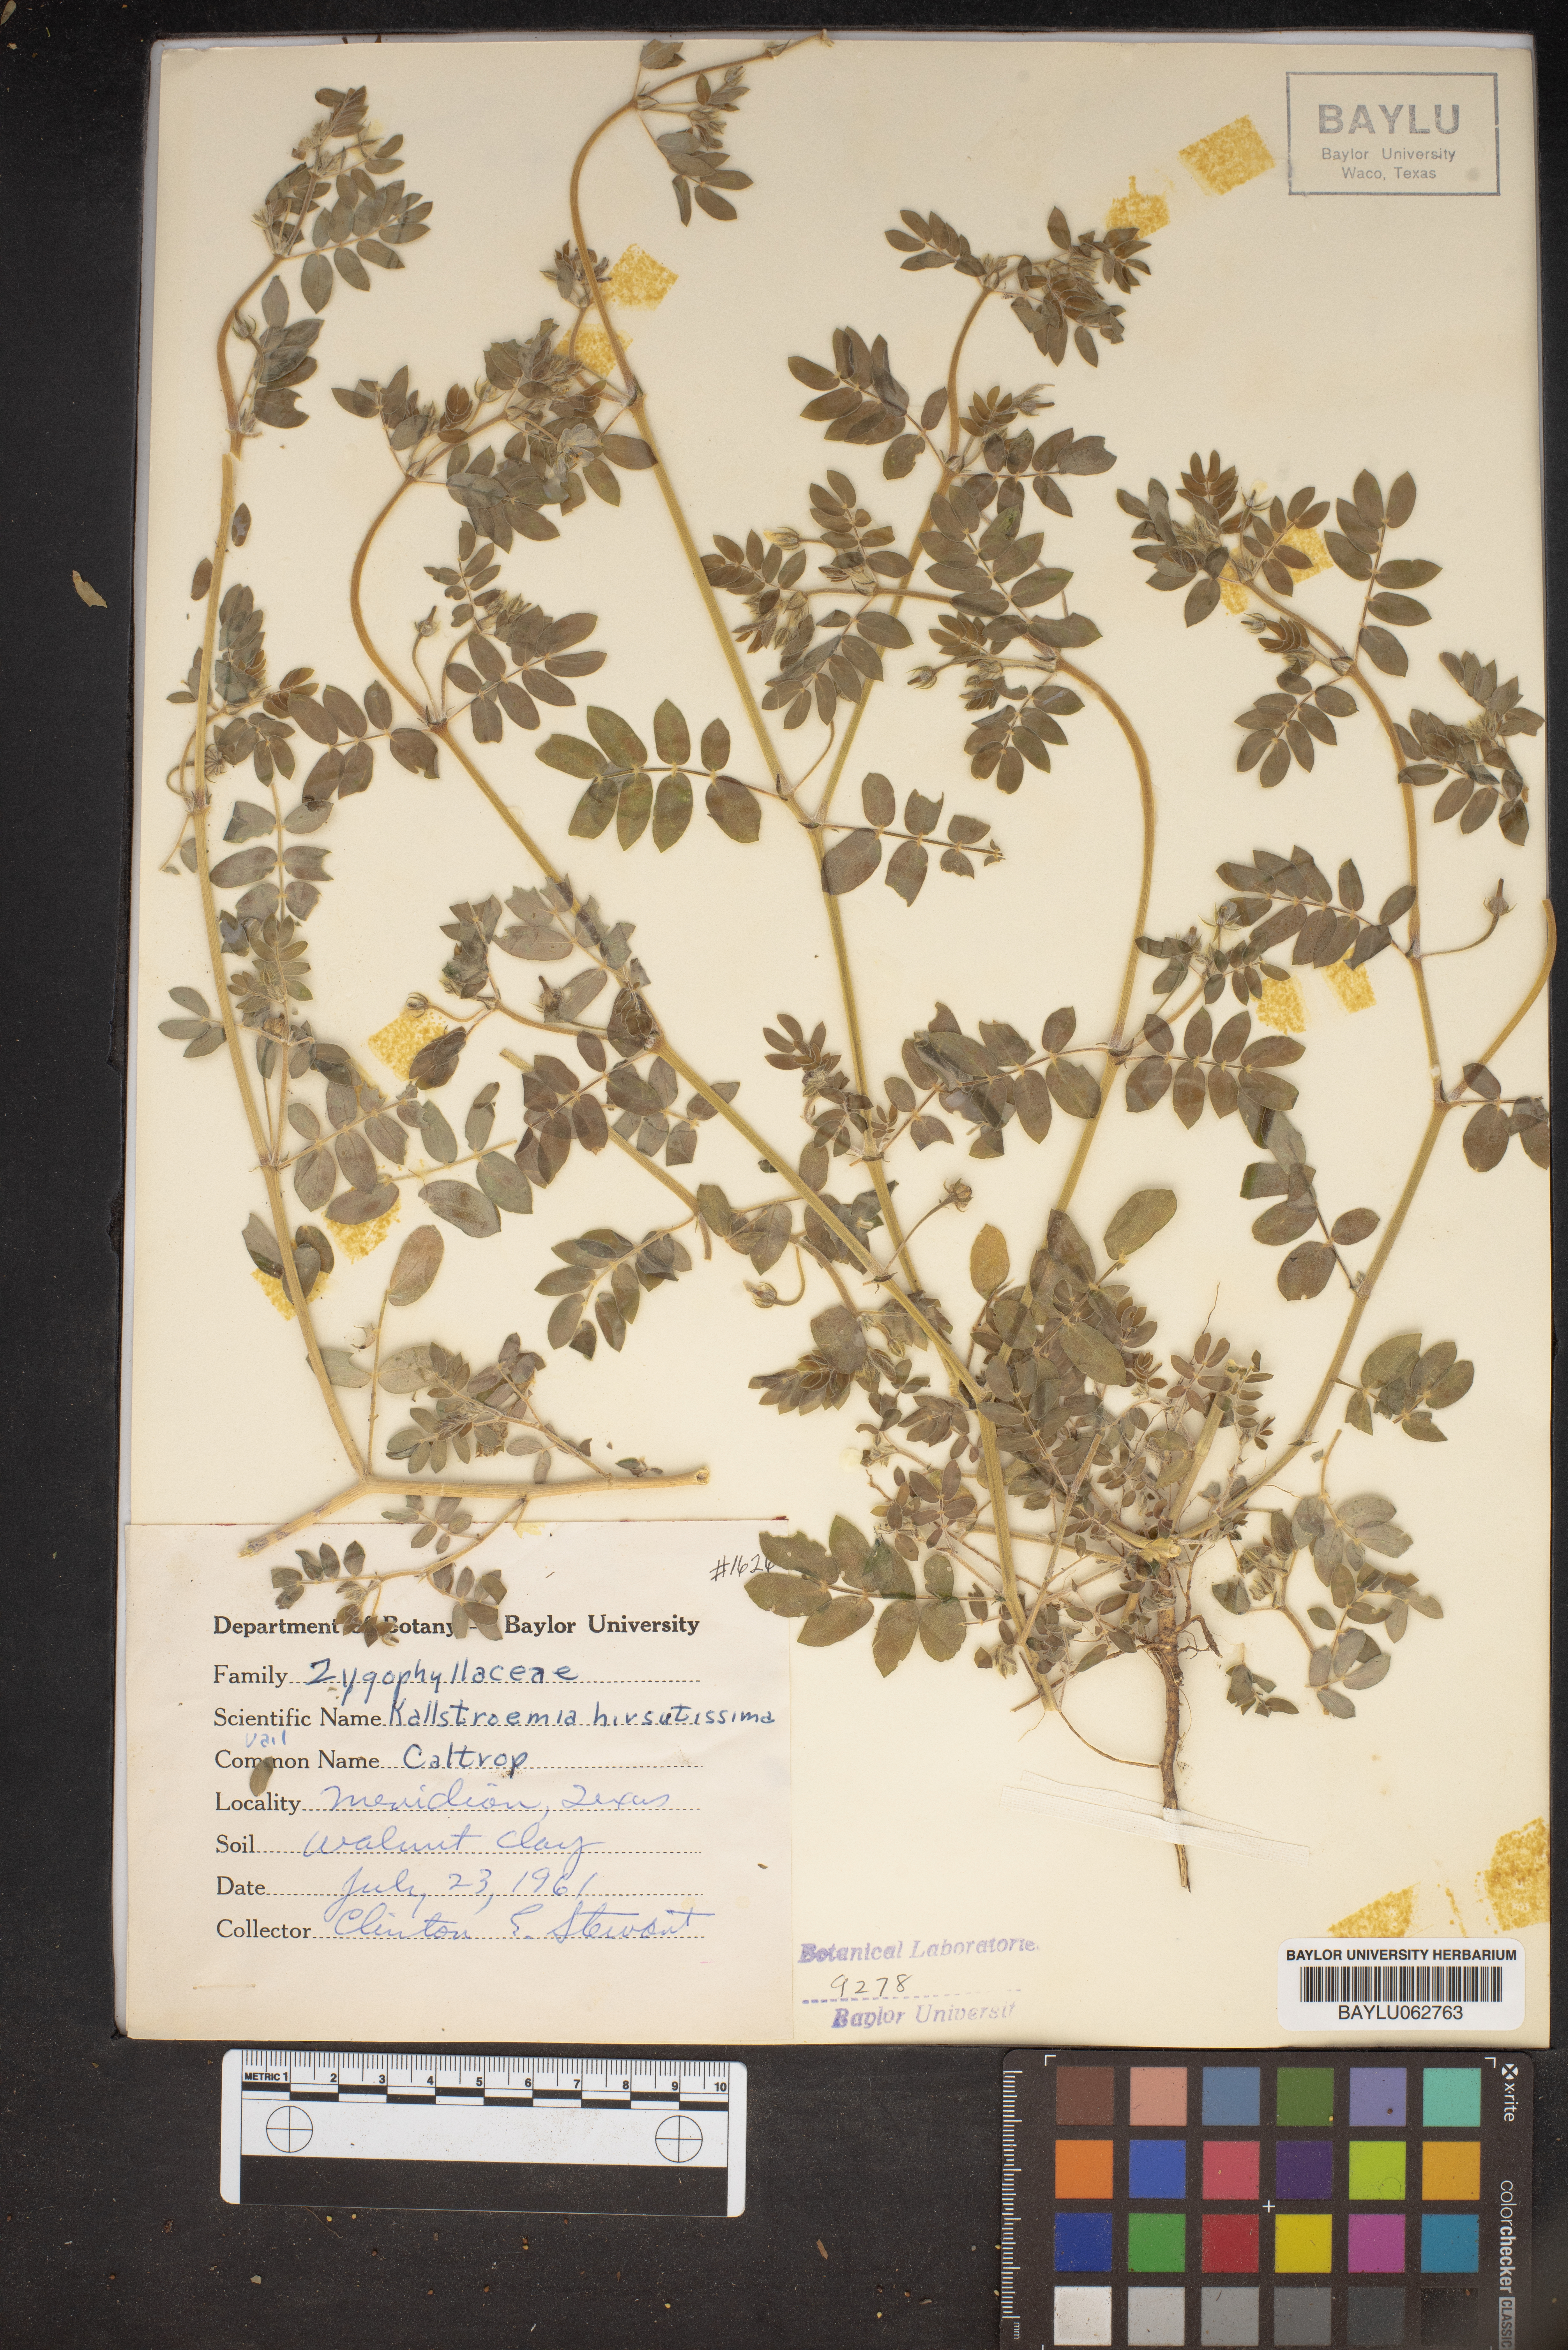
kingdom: Plantae
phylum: Tracheophyta
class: Magnoliopsida
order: Zygophyllales
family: Zygophyllaceae
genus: Kallstroemia
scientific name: Kallstroemia hirsutissima
